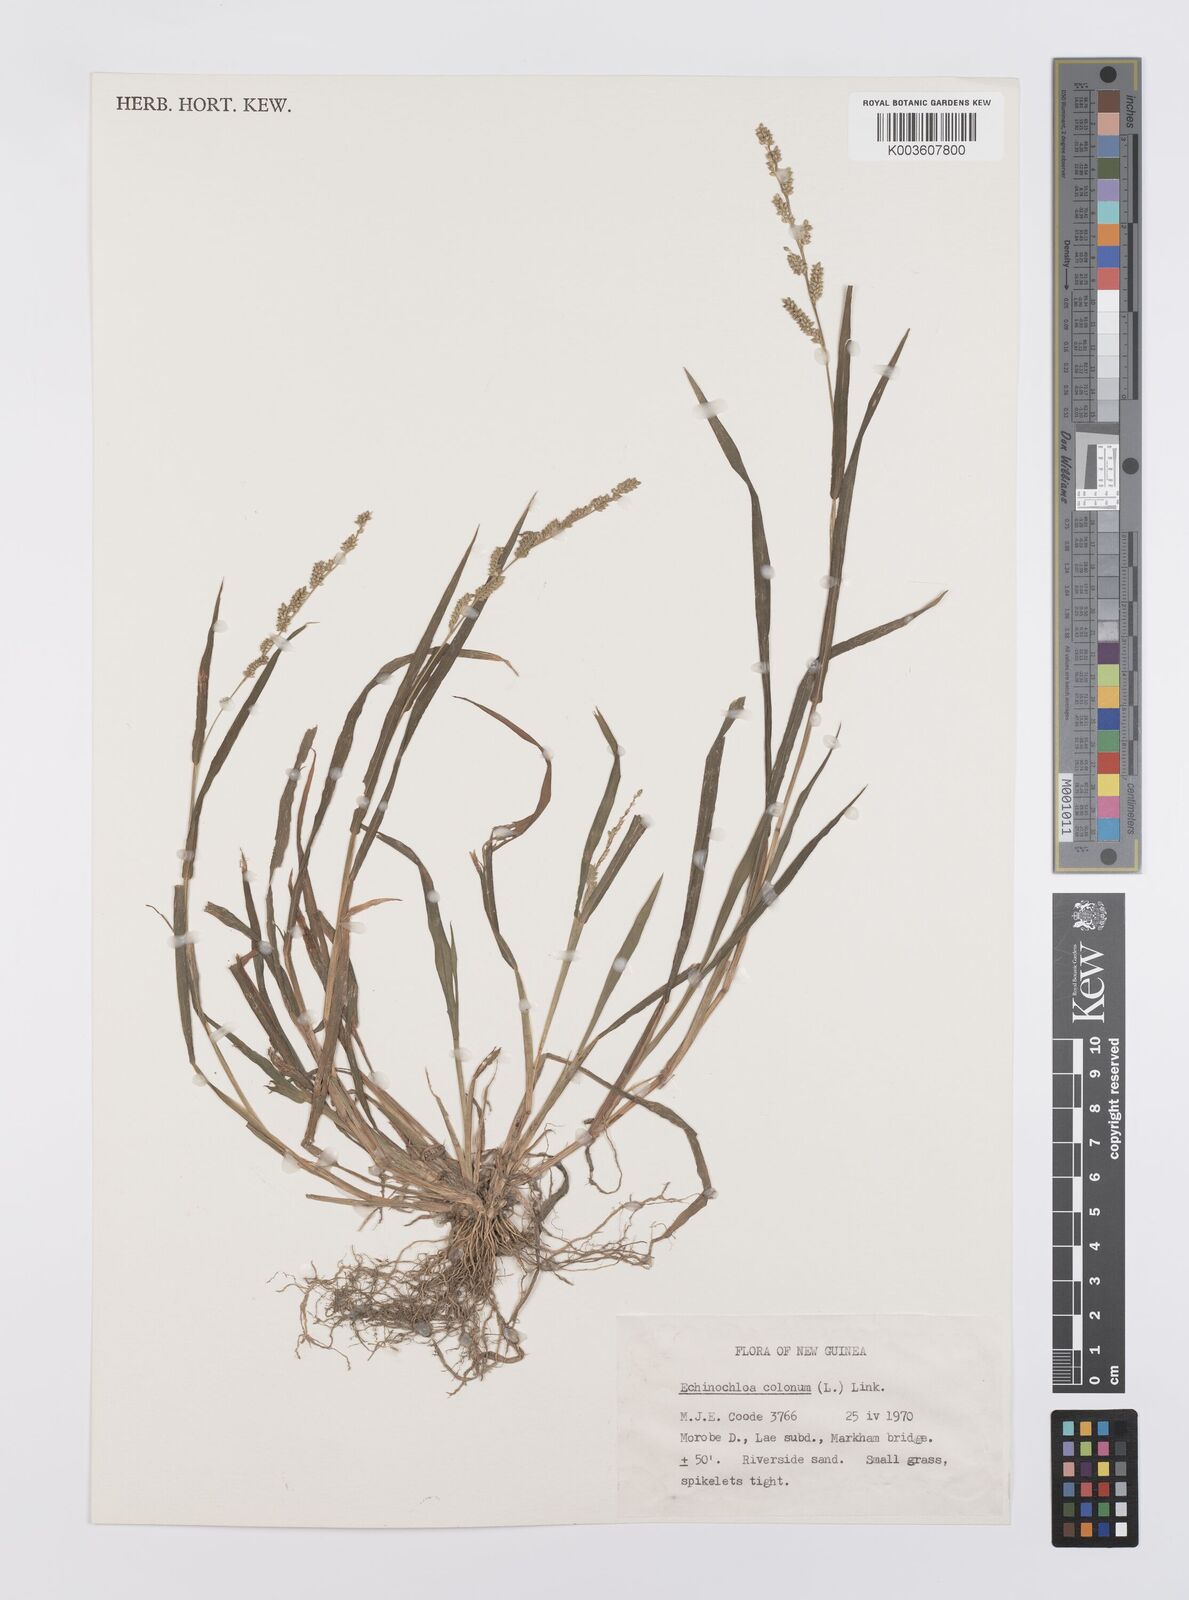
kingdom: Plantae
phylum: Tracheophyta
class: Liliopsida
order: Poales
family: Poaceae
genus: Echinochloa
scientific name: Echinochloa colonum
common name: Jungle rice
